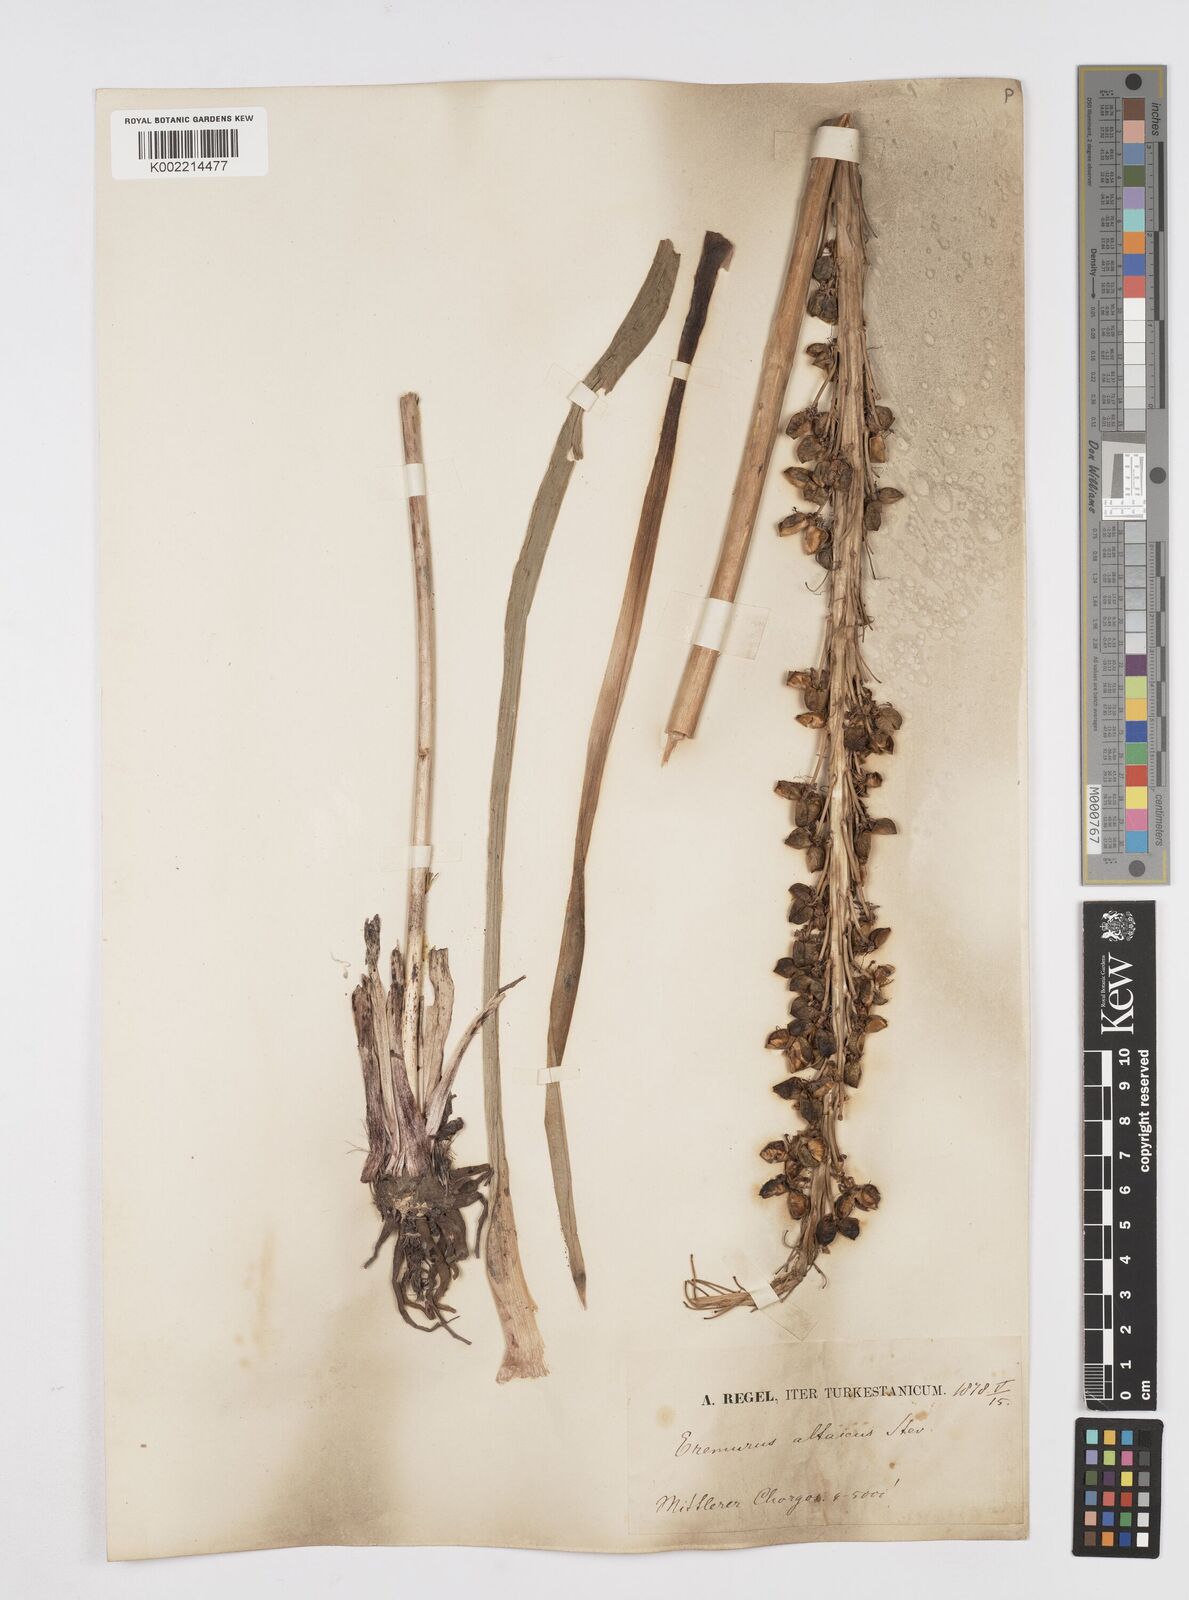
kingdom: Plantae
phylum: Tracheophyta
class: Liliopsida
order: Asparagales
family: Asphodelaceae
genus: Eremurus
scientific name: Eremurus altaicus
